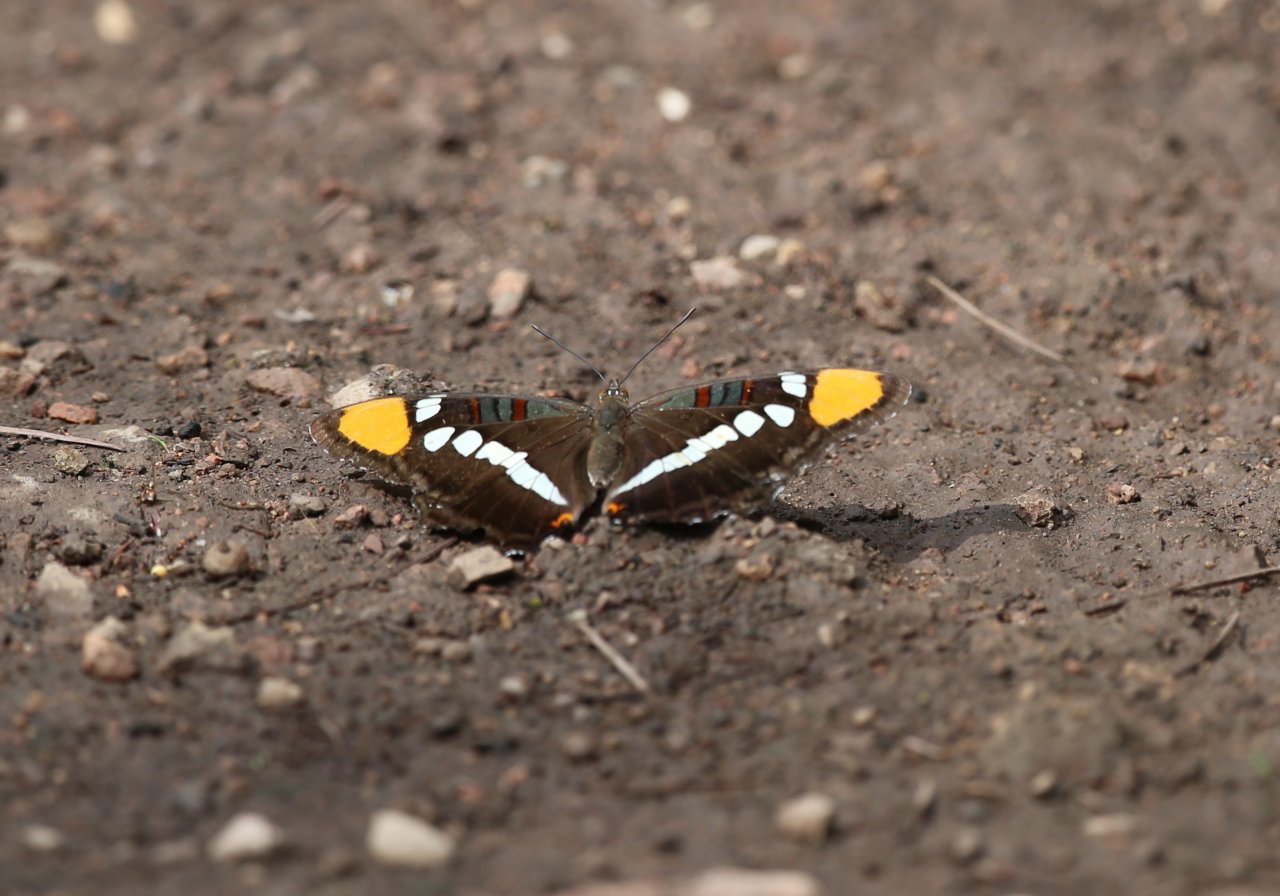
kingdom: Animalia
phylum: Arthropoda
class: Insecta
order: Lepidoptera
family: Nymphalidae
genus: Limenitis
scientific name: Limenitis bredowii
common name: Arizona Sister
